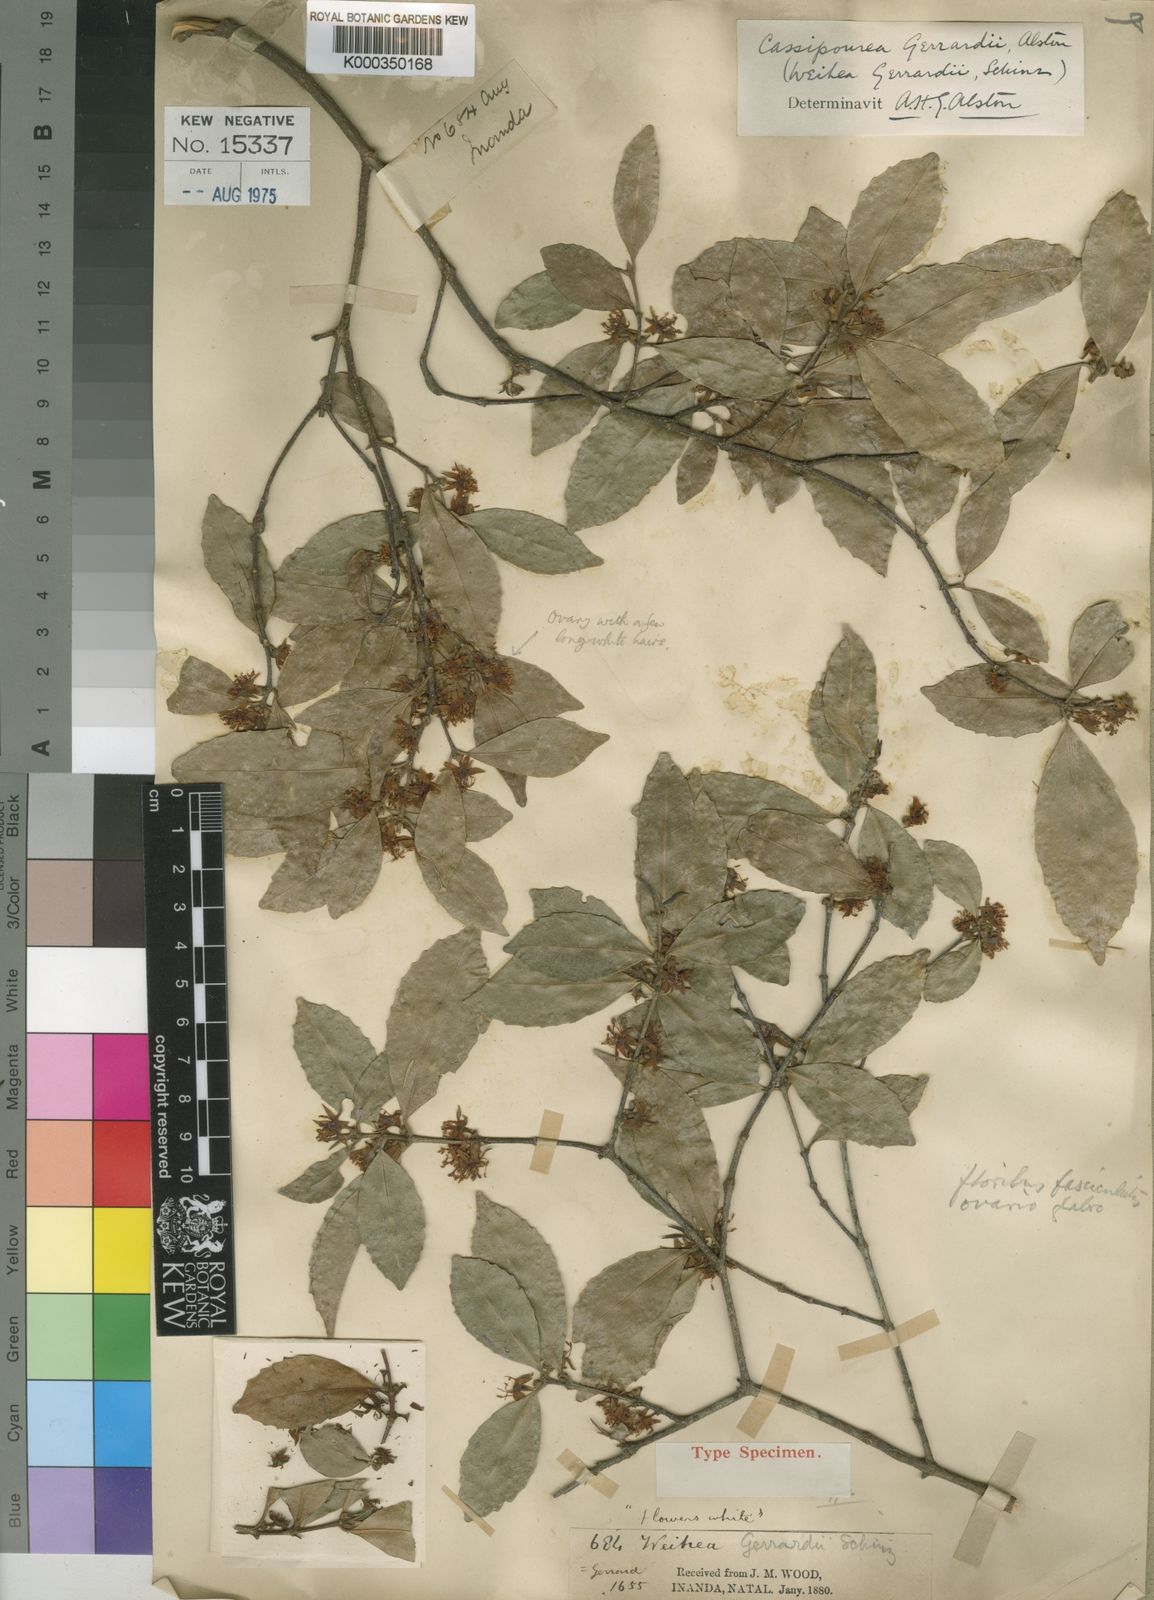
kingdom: Plantae
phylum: Tracheophyta
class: Magnoliopsida
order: Malpighiales
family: Rhizophoraceae
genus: Cassipourea
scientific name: Cassipourea malosana
